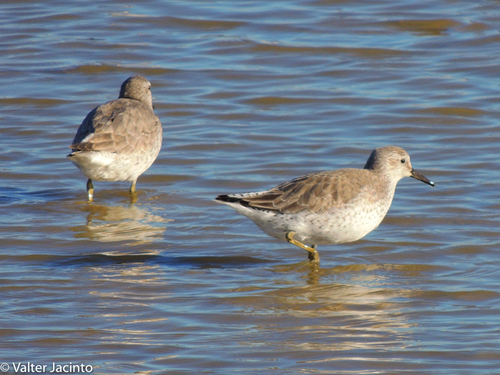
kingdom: Animalia
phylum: Chordata
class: Aves
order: Charadriiformes
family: Scolopacidae
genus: Calidris
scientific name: Calidris canutus
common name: Red knot
